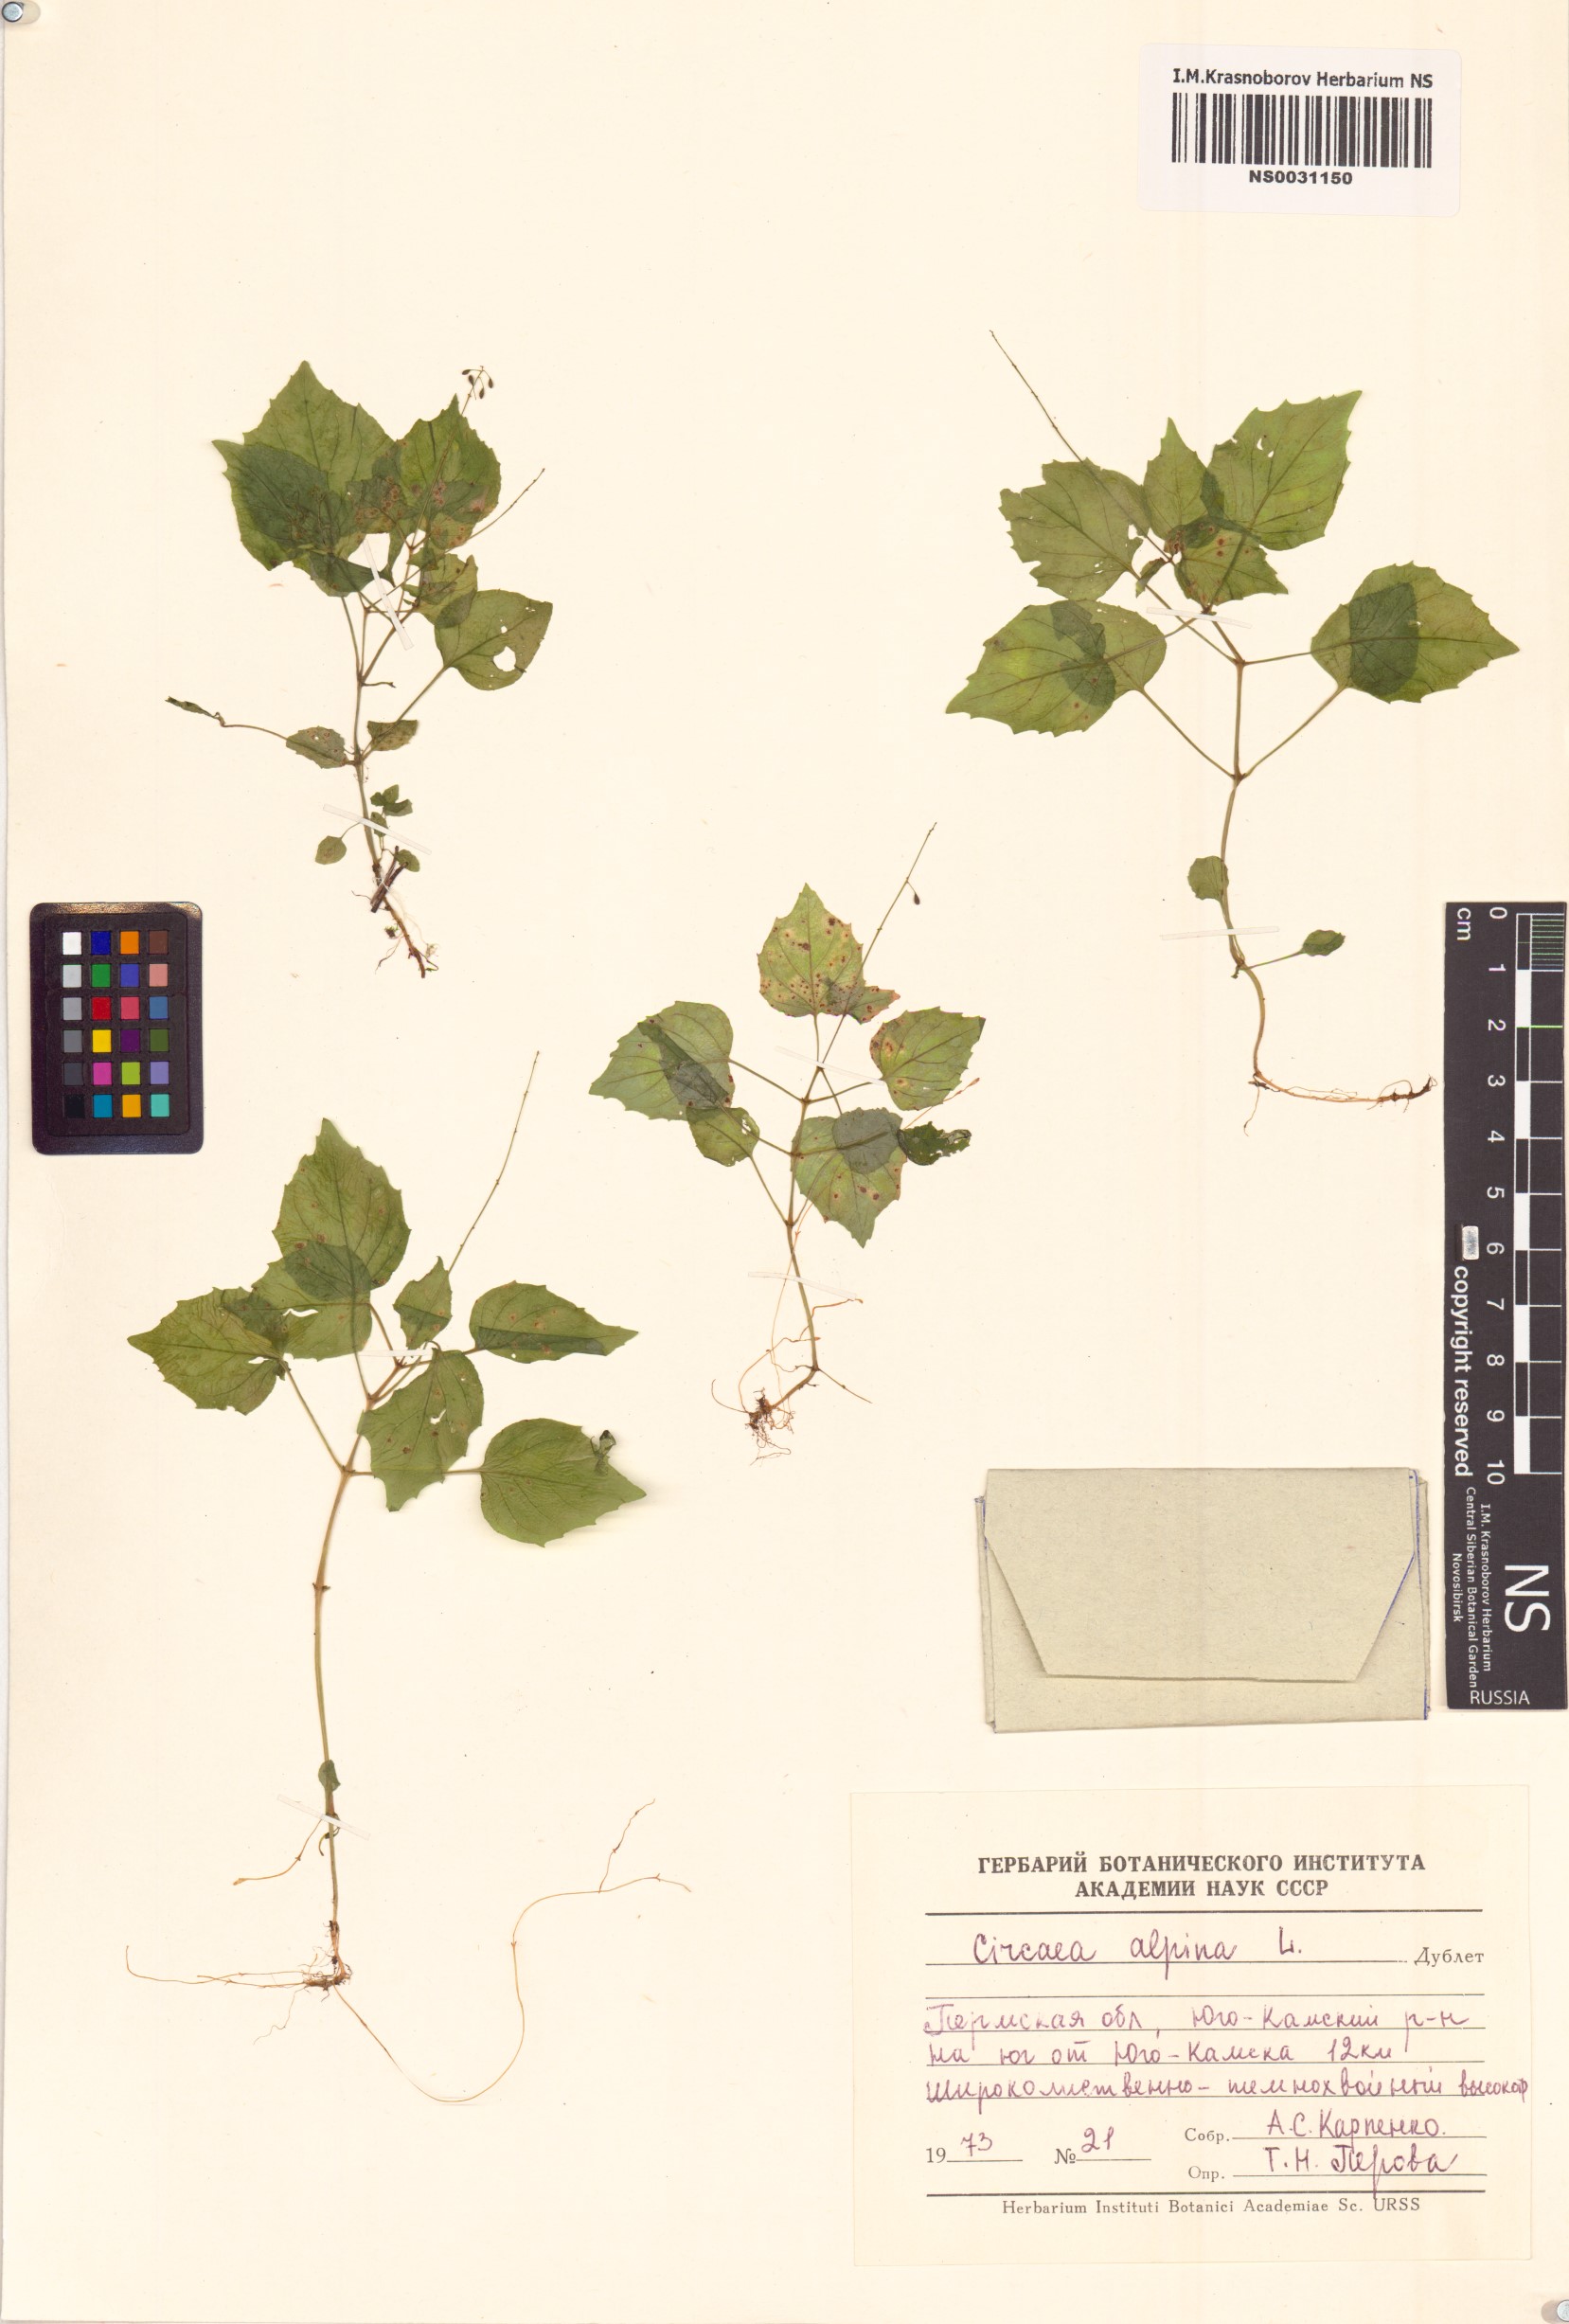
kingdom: Plantae
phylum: Tracheophyta
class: Magnoliopsida
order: Myrtales
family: Onagraceae
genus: Circaea
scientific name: Circaea alpina
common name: Alpine enchanter's-nightshade
